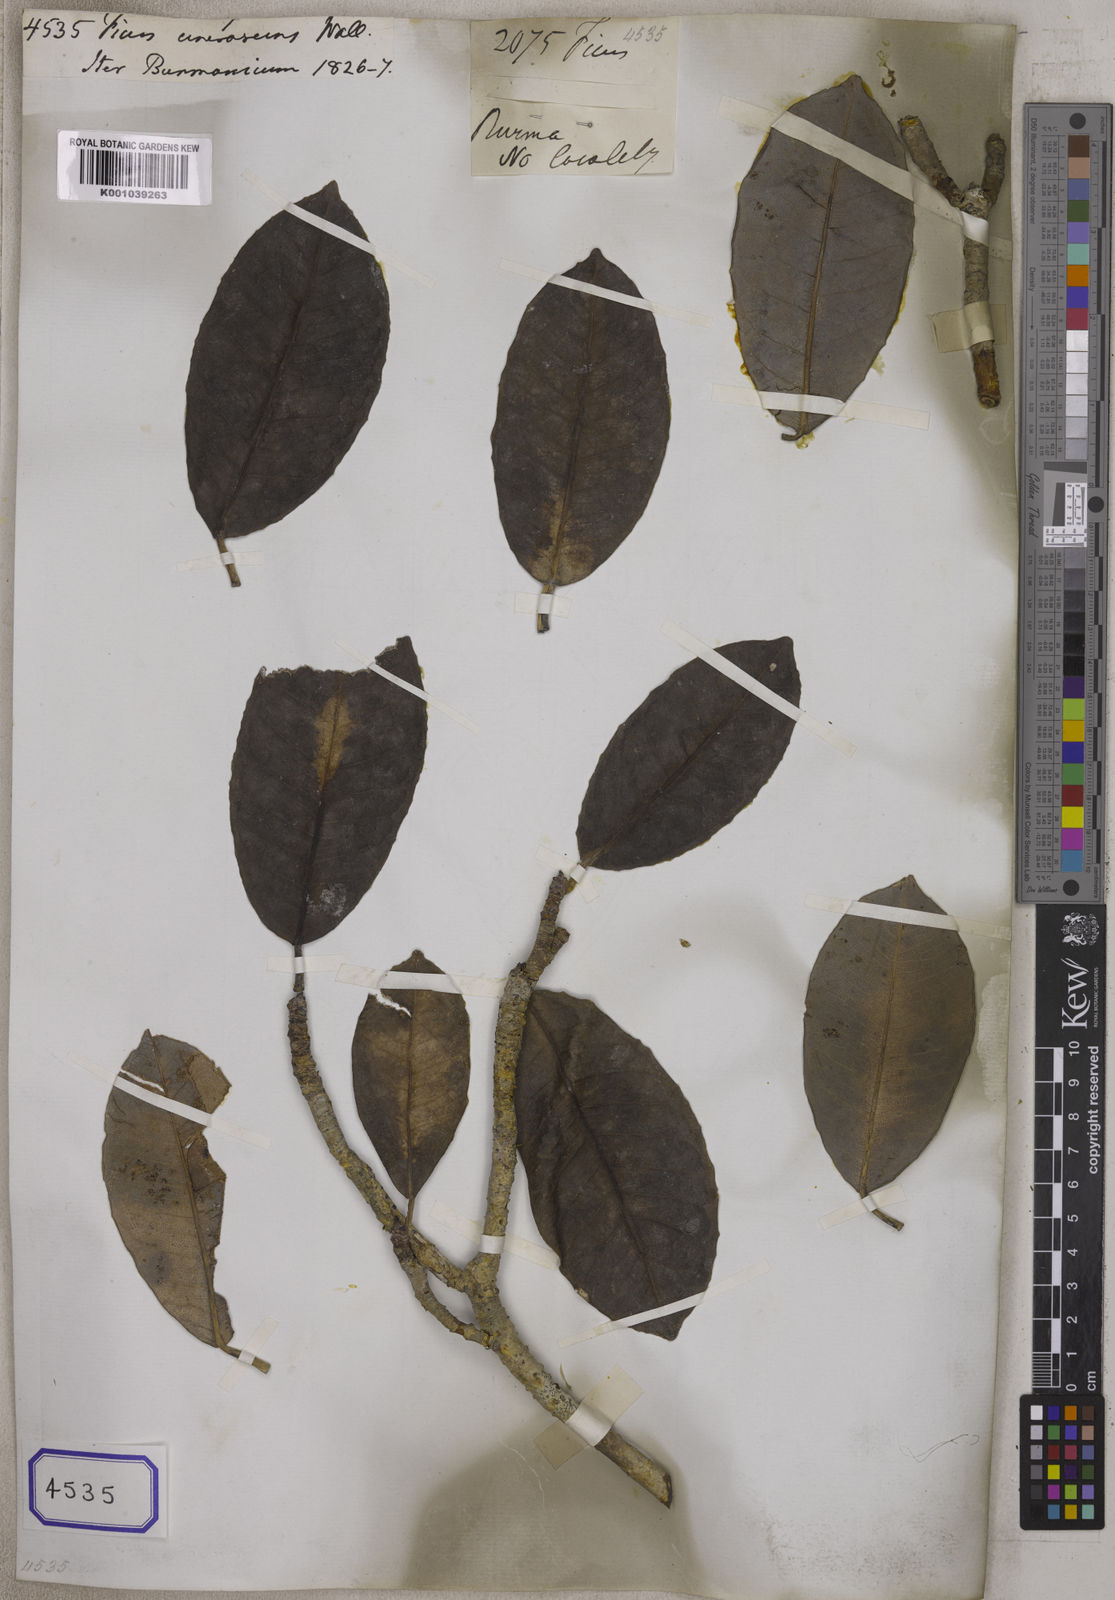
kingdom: Plantae
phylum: Tracheophyta
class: Magnoliopsida
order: Rosales
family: Moraceae
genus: Ficus
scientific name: Ficus
